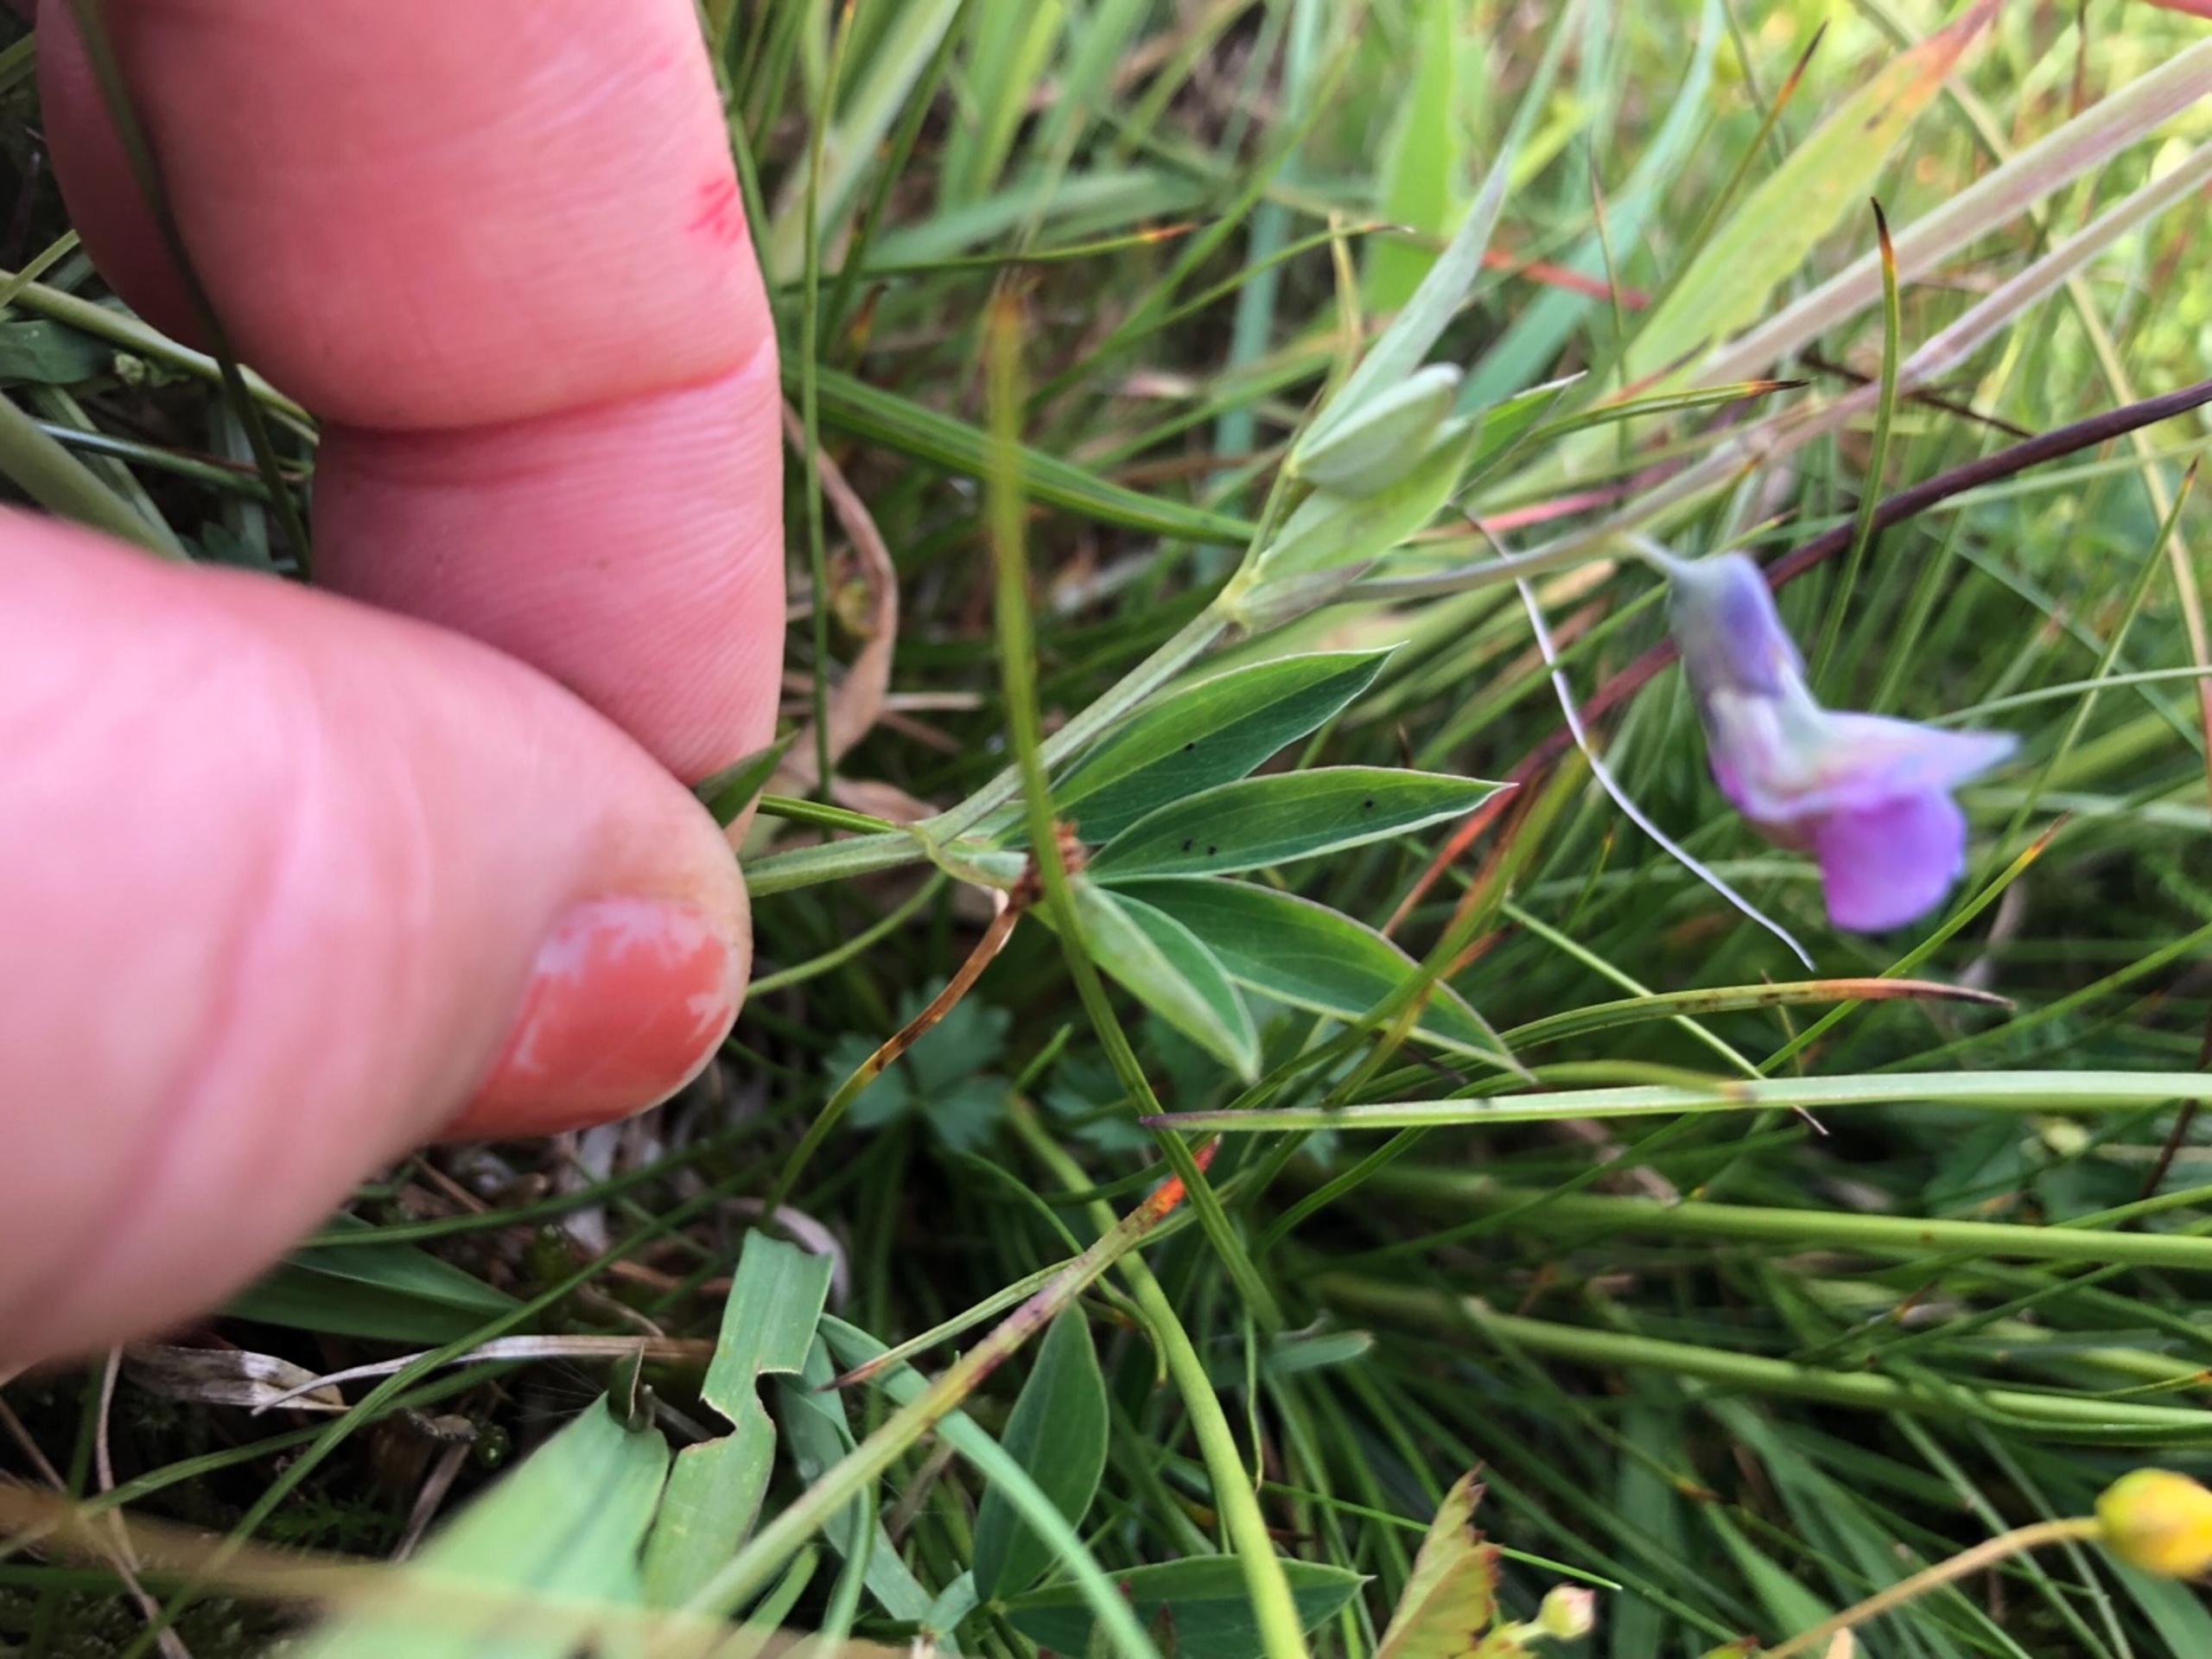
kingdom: Plantae
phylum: Tracheophyta
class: Magnoliopsida
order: Fabales
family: Fabaceae
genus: Lathyrus
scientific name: Lathyrus linifolius
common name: Krat-fladbælg
